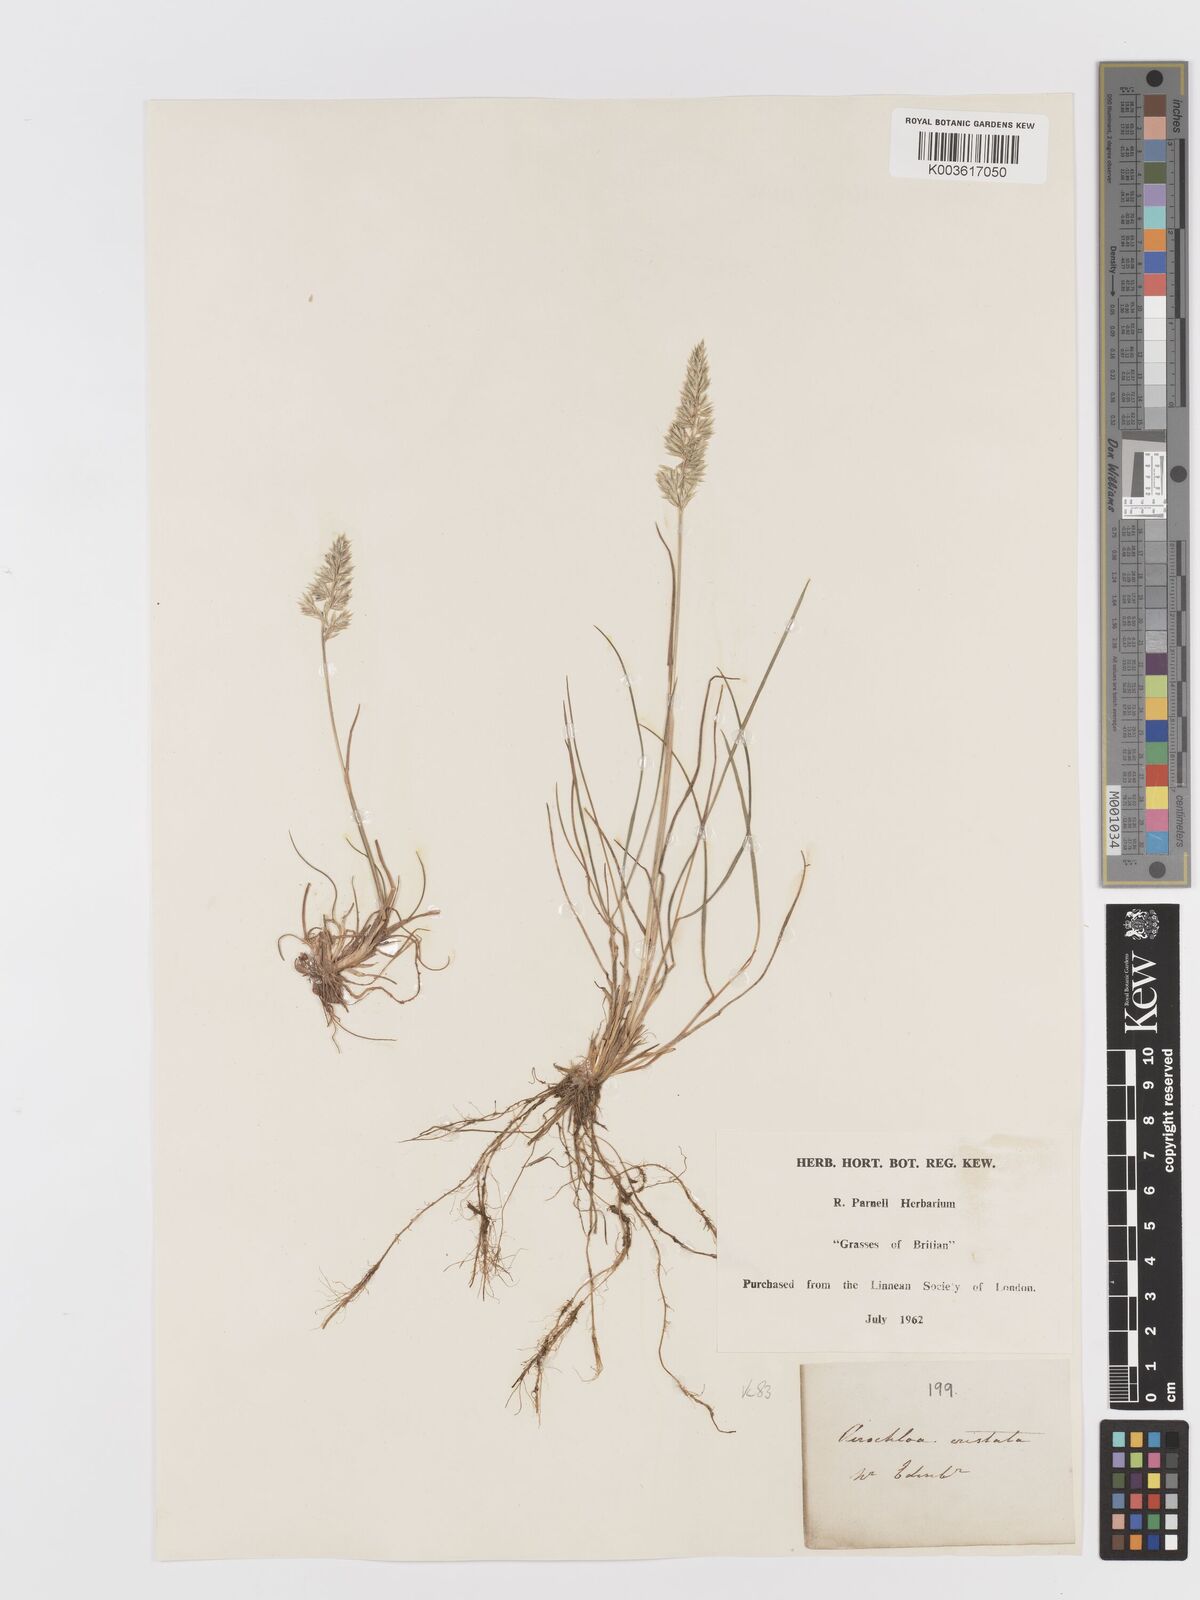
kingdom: Plantae
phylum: Tracheophyta
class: Liliopsida
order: Poales
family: Poaceae
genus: Koeleria
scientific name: Koeleria macrantha
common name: Crested hair-grass
